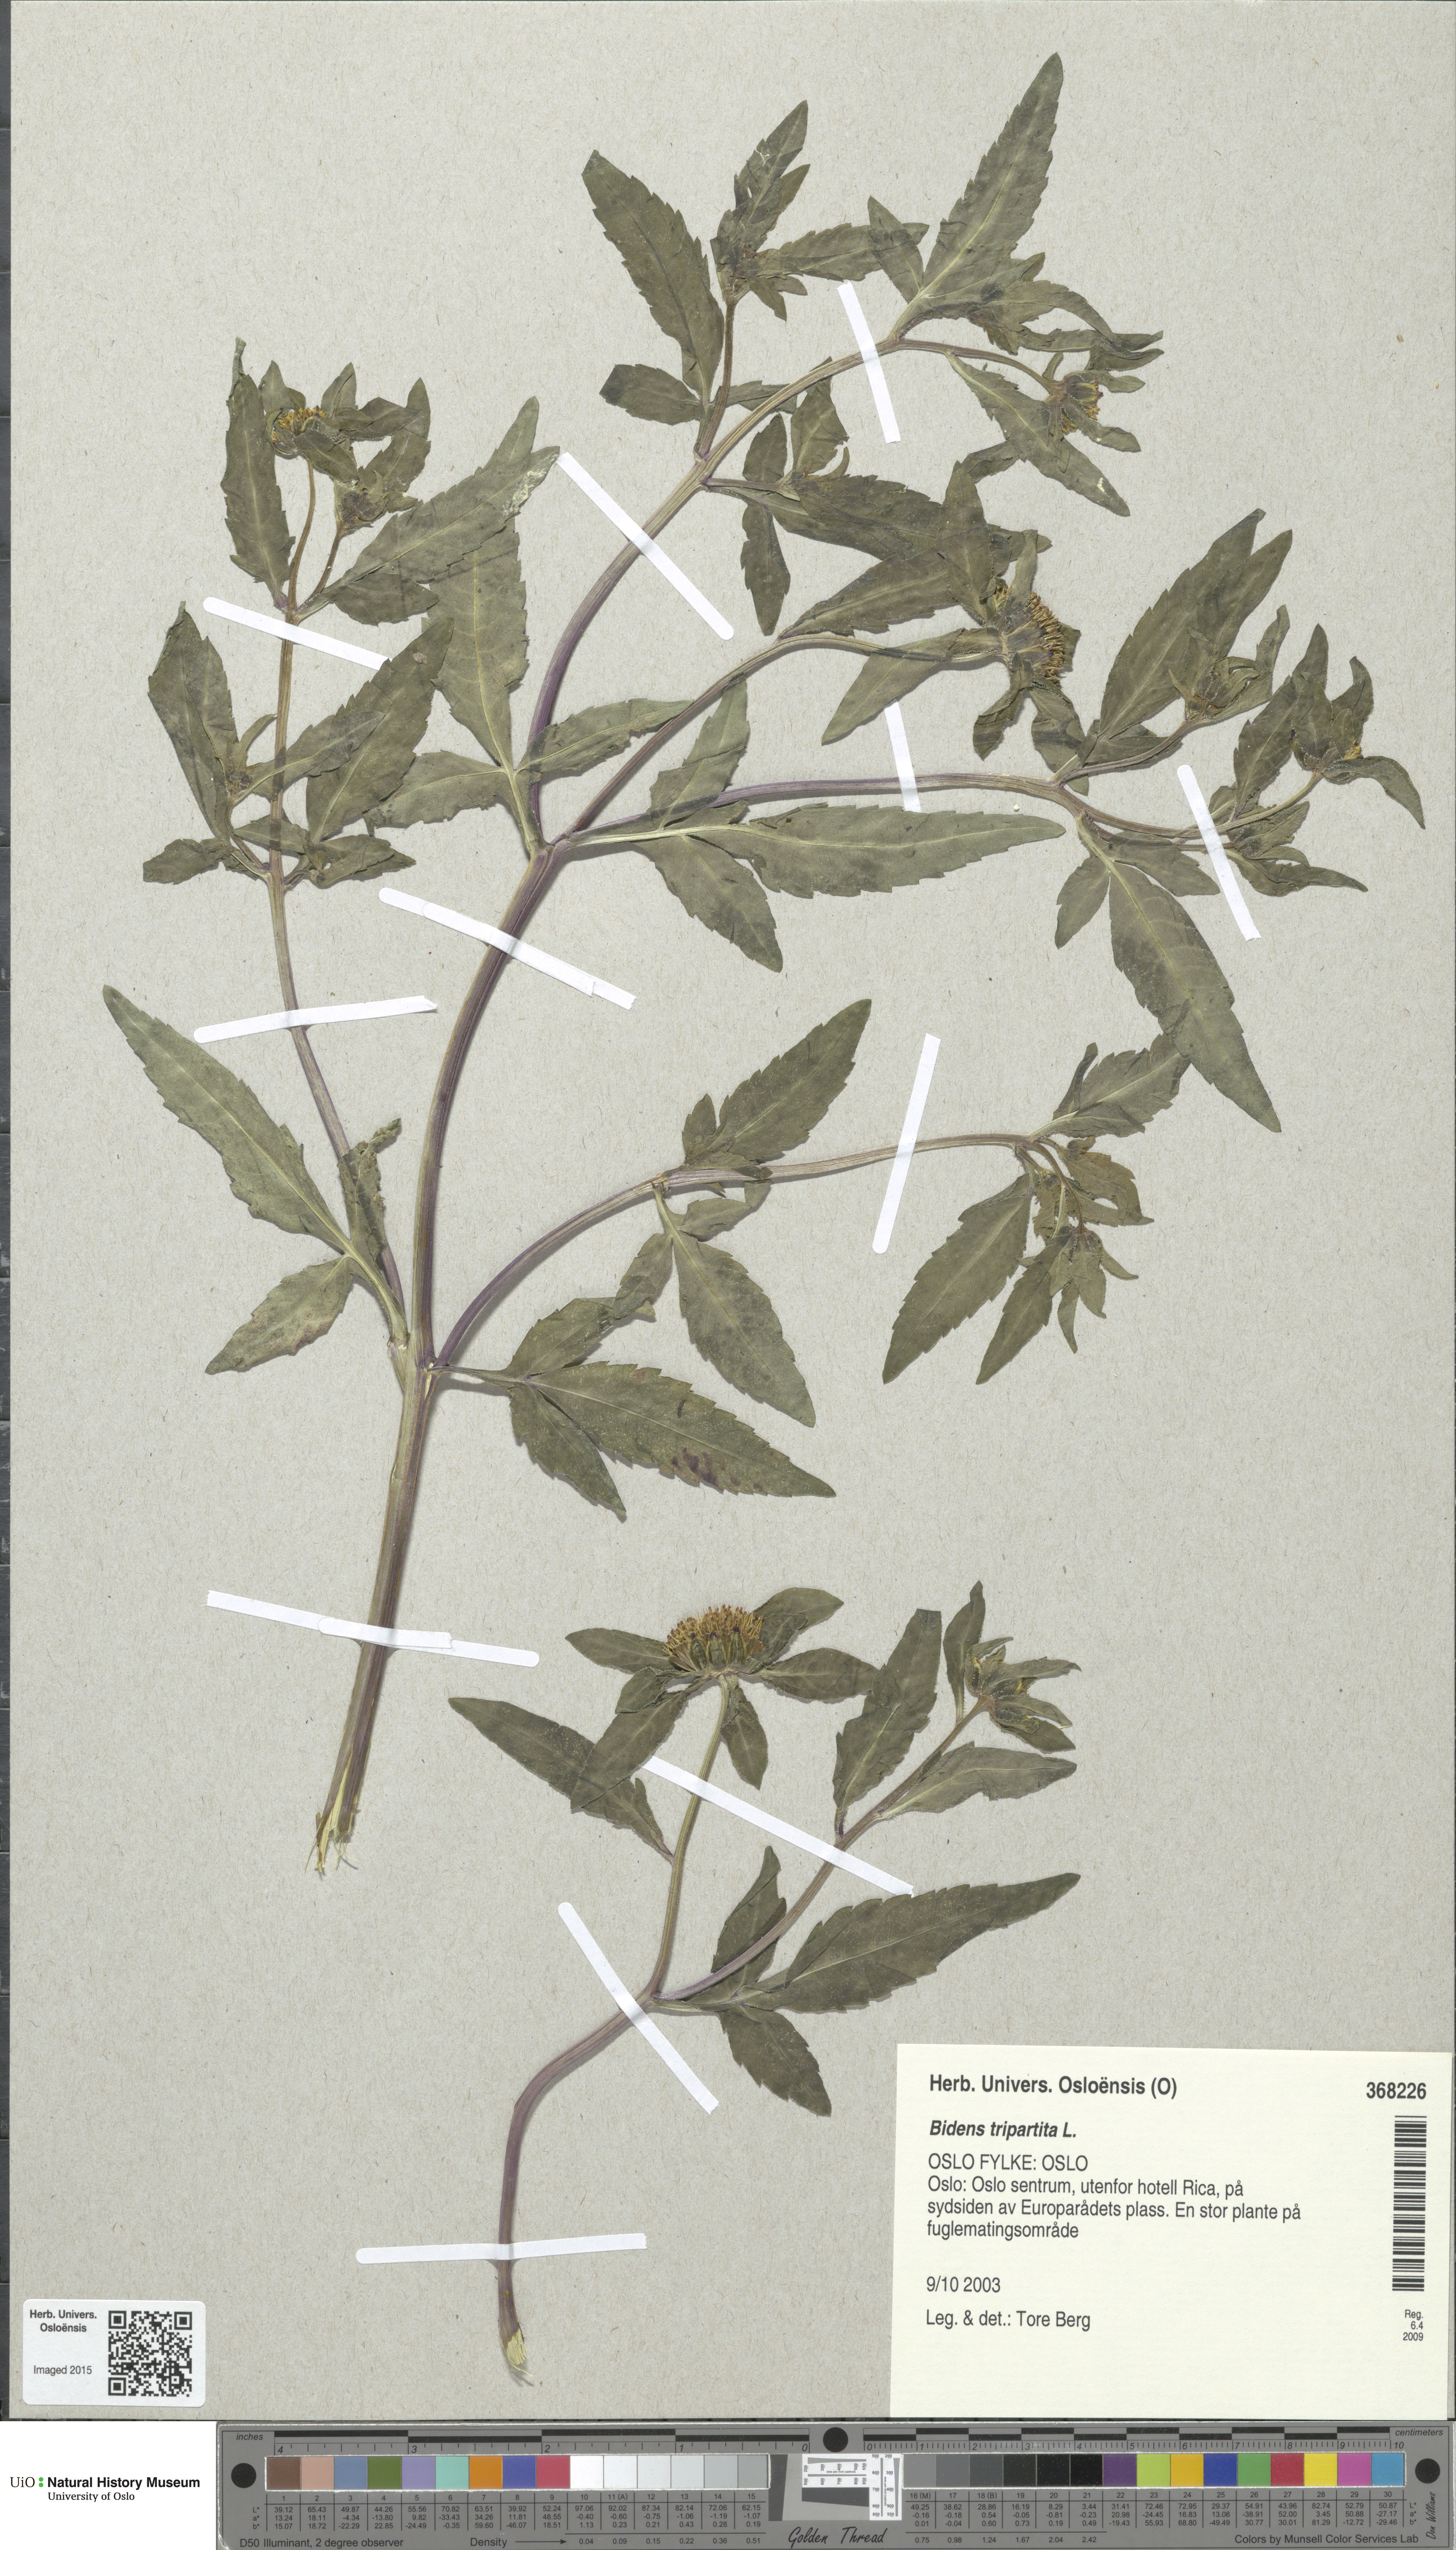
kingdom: Plantae
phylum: Tracheophyta
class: Magnoliopsida
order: Asterales
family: Asteraceae
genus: Bidens
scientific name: Bidens tripartita
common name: Trifid bur-marigold
